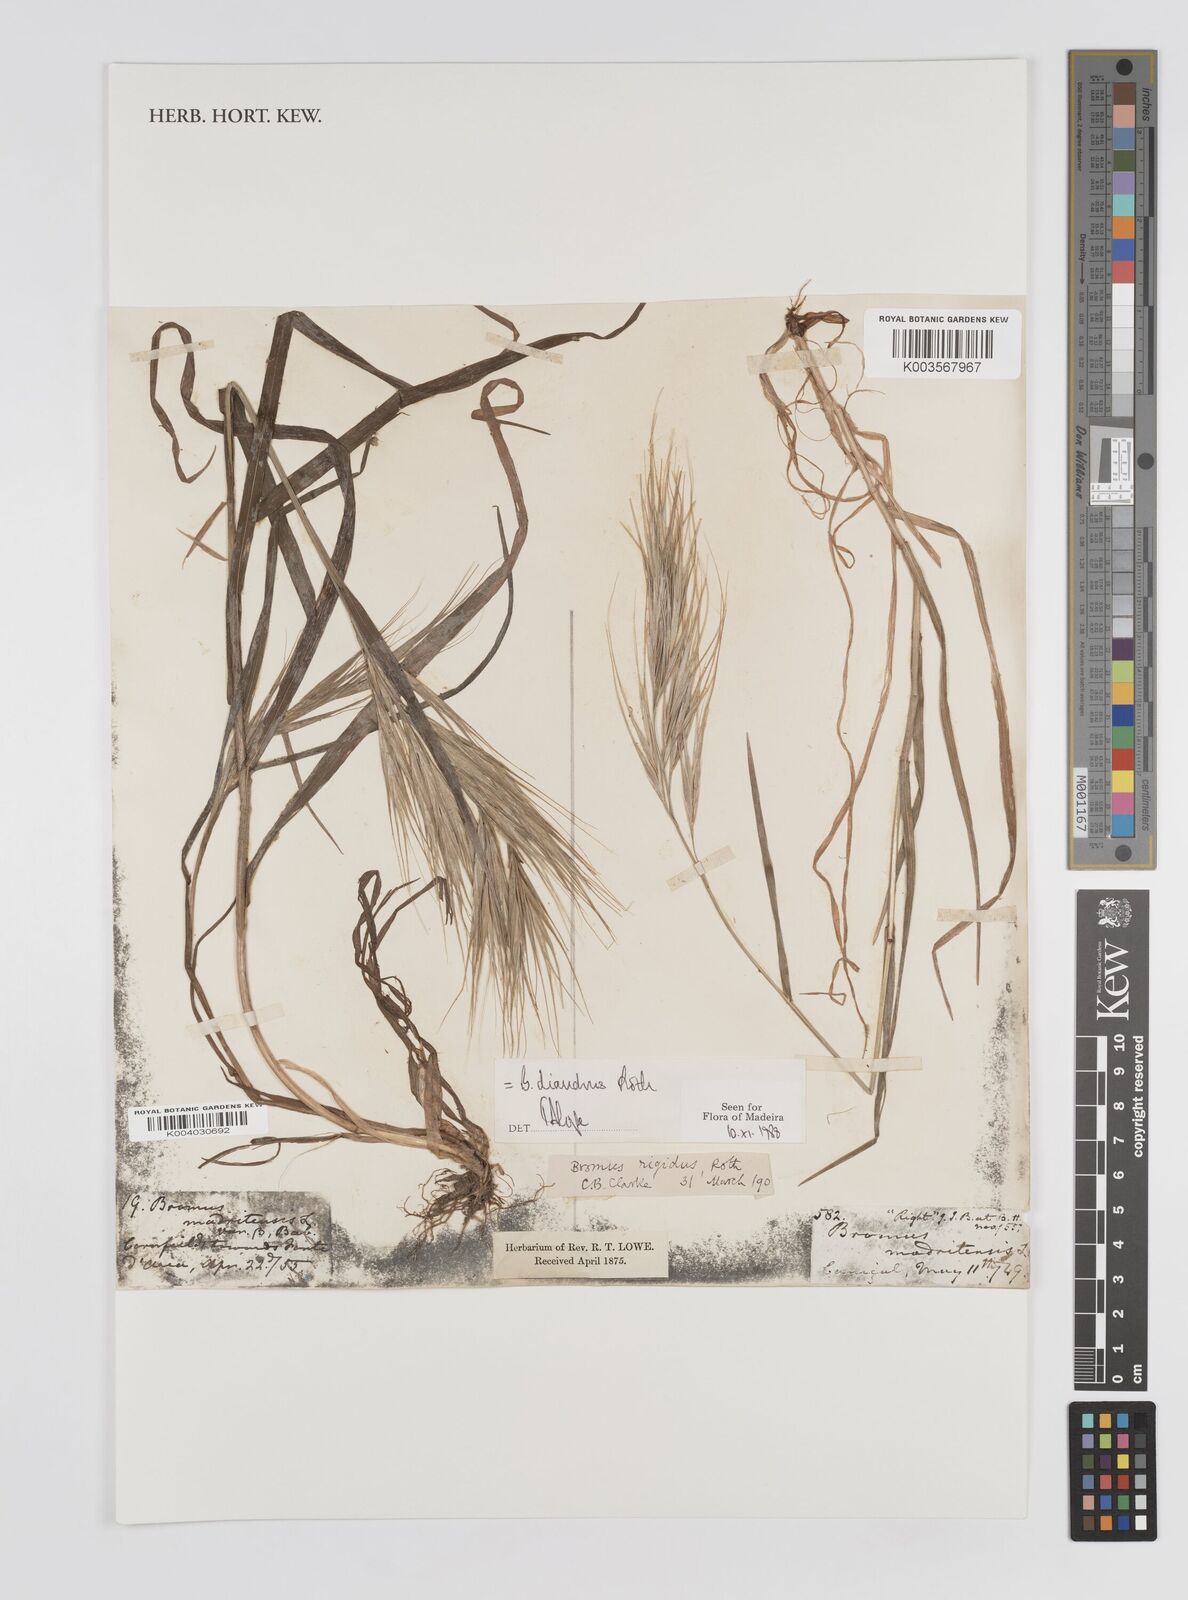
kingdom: Plantae
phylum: Tracheophyta
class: Liliopsida
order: Poales
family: Poaceae
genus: Bromus
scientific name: Bromus diandrus
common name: Ripgut brome
